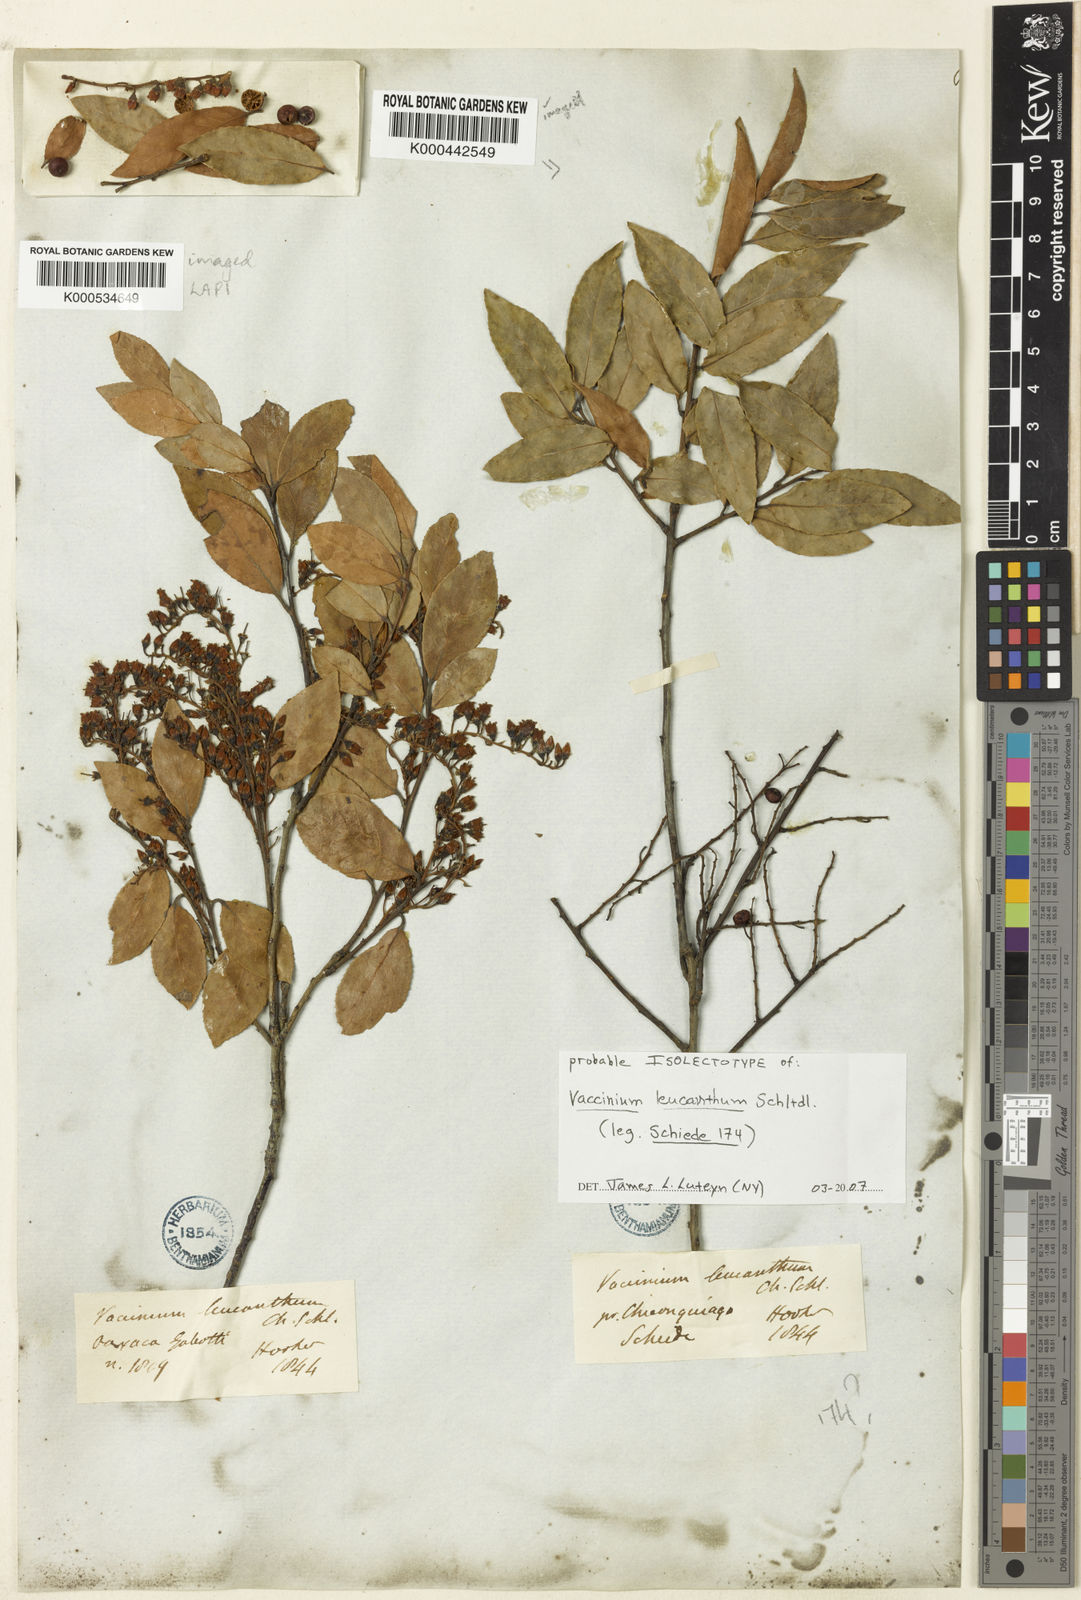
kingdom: Plantae
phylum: Tracheophyta
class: Magnoliopsida
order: Ericales
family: Ericaceae
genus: Vaccinium
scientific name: Vaccinium leucanthum
